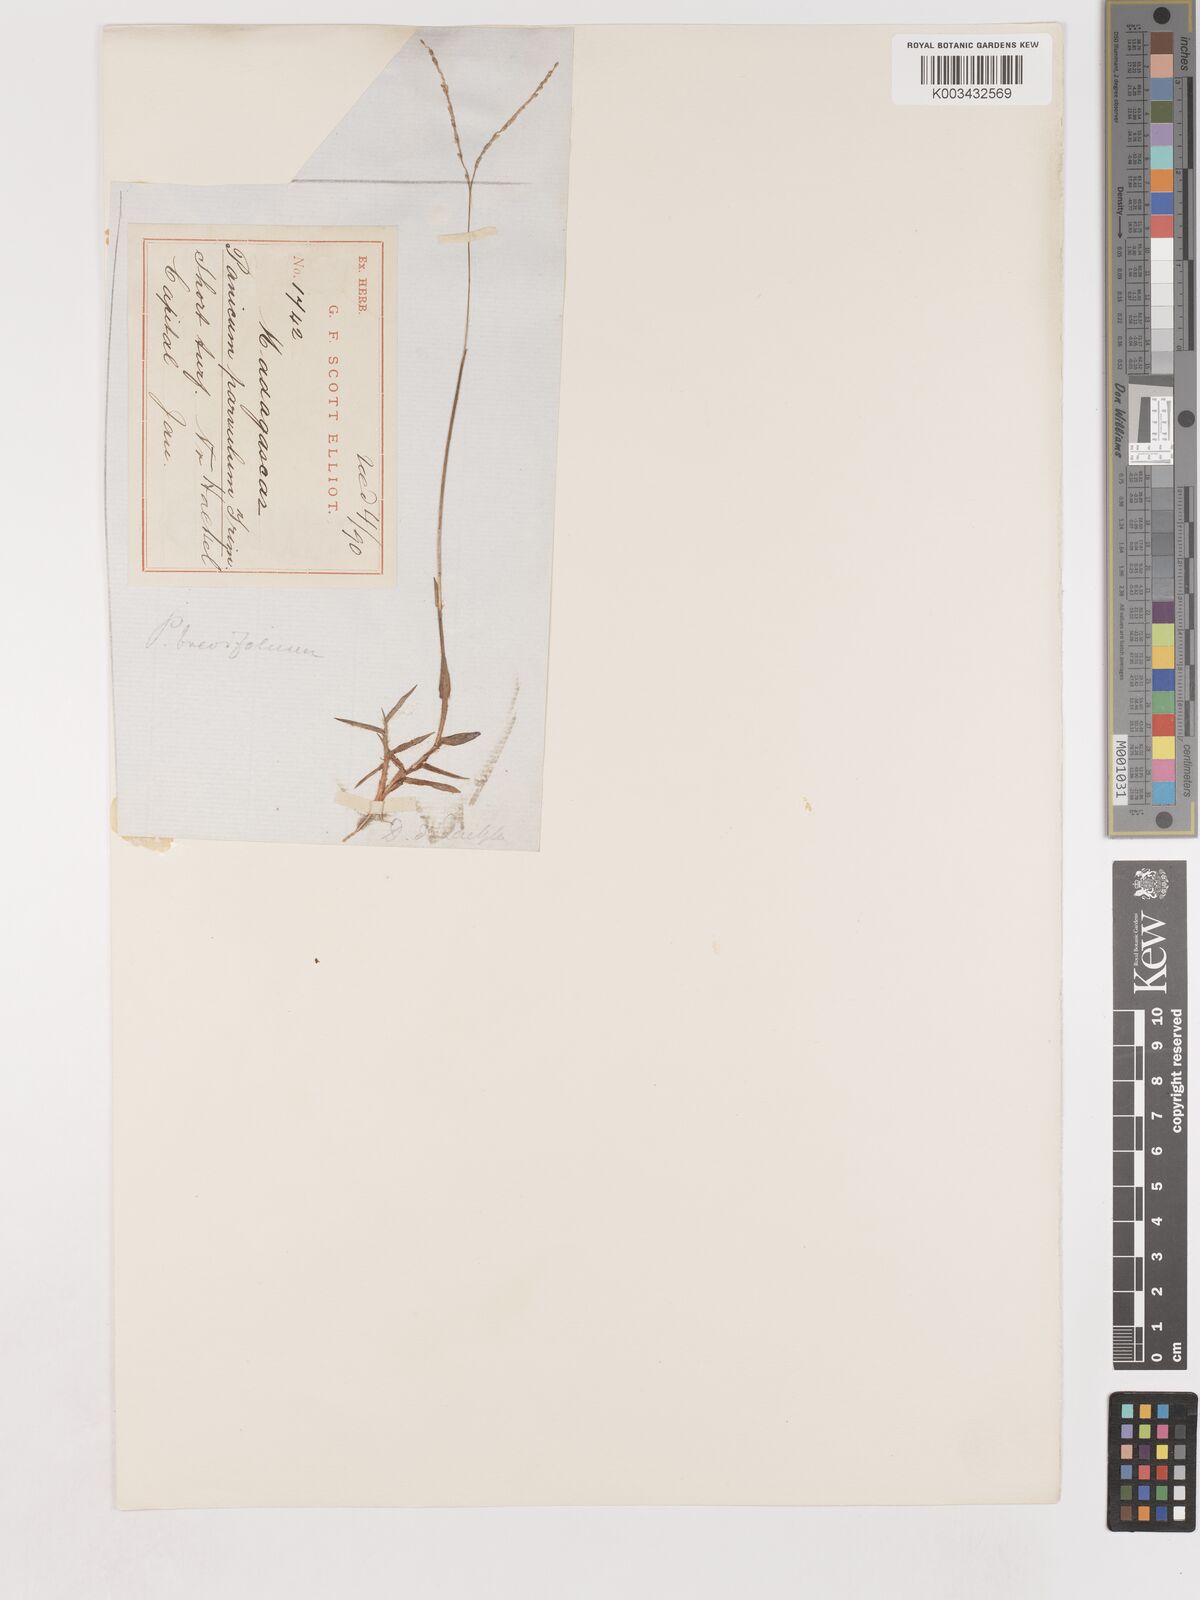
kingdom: Plantae
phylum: Tracheophyta
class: Liliopsida
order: Poales
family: Poaceae
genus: Digitaria
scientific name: Digitaria longiflora
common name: Wire crabgrass
